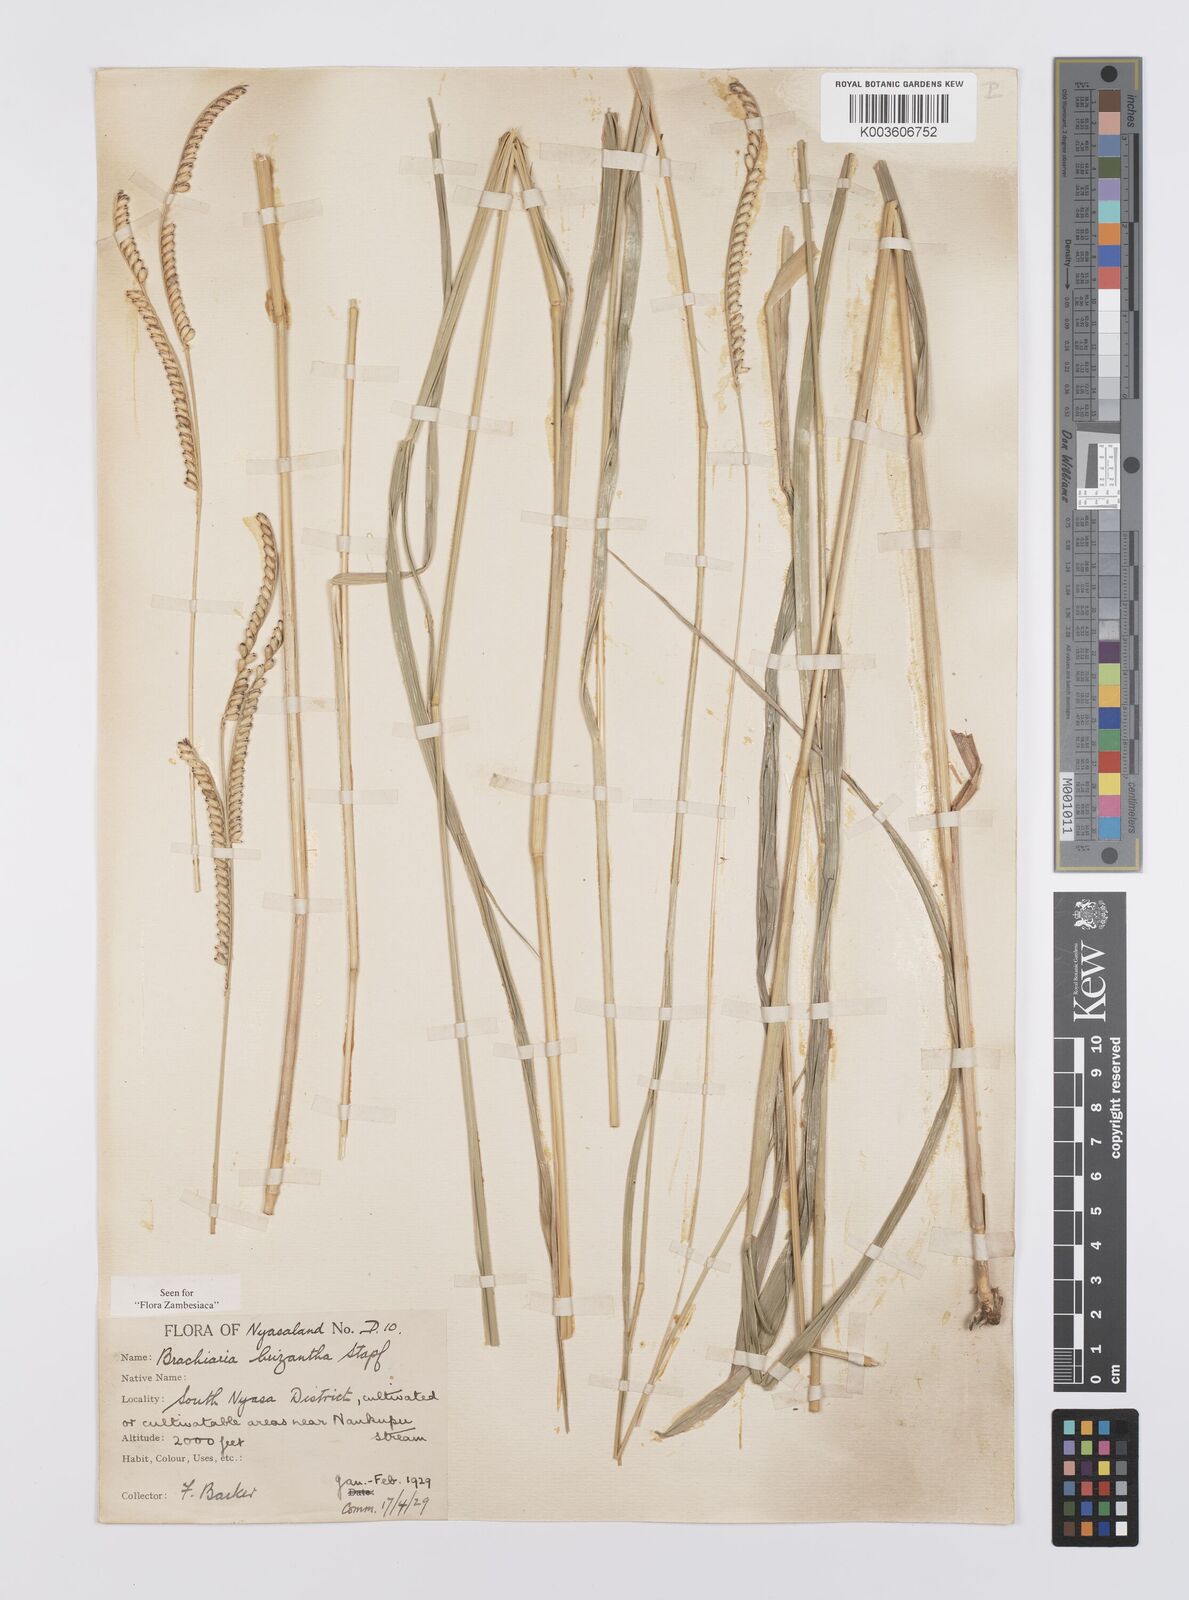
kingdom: Plantae
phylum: Tracheophyta
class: Liliopsida
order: Poales
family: Poaceae
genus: Urochloa
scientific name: Urochloa brizantha
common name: Palisade signalgrass
